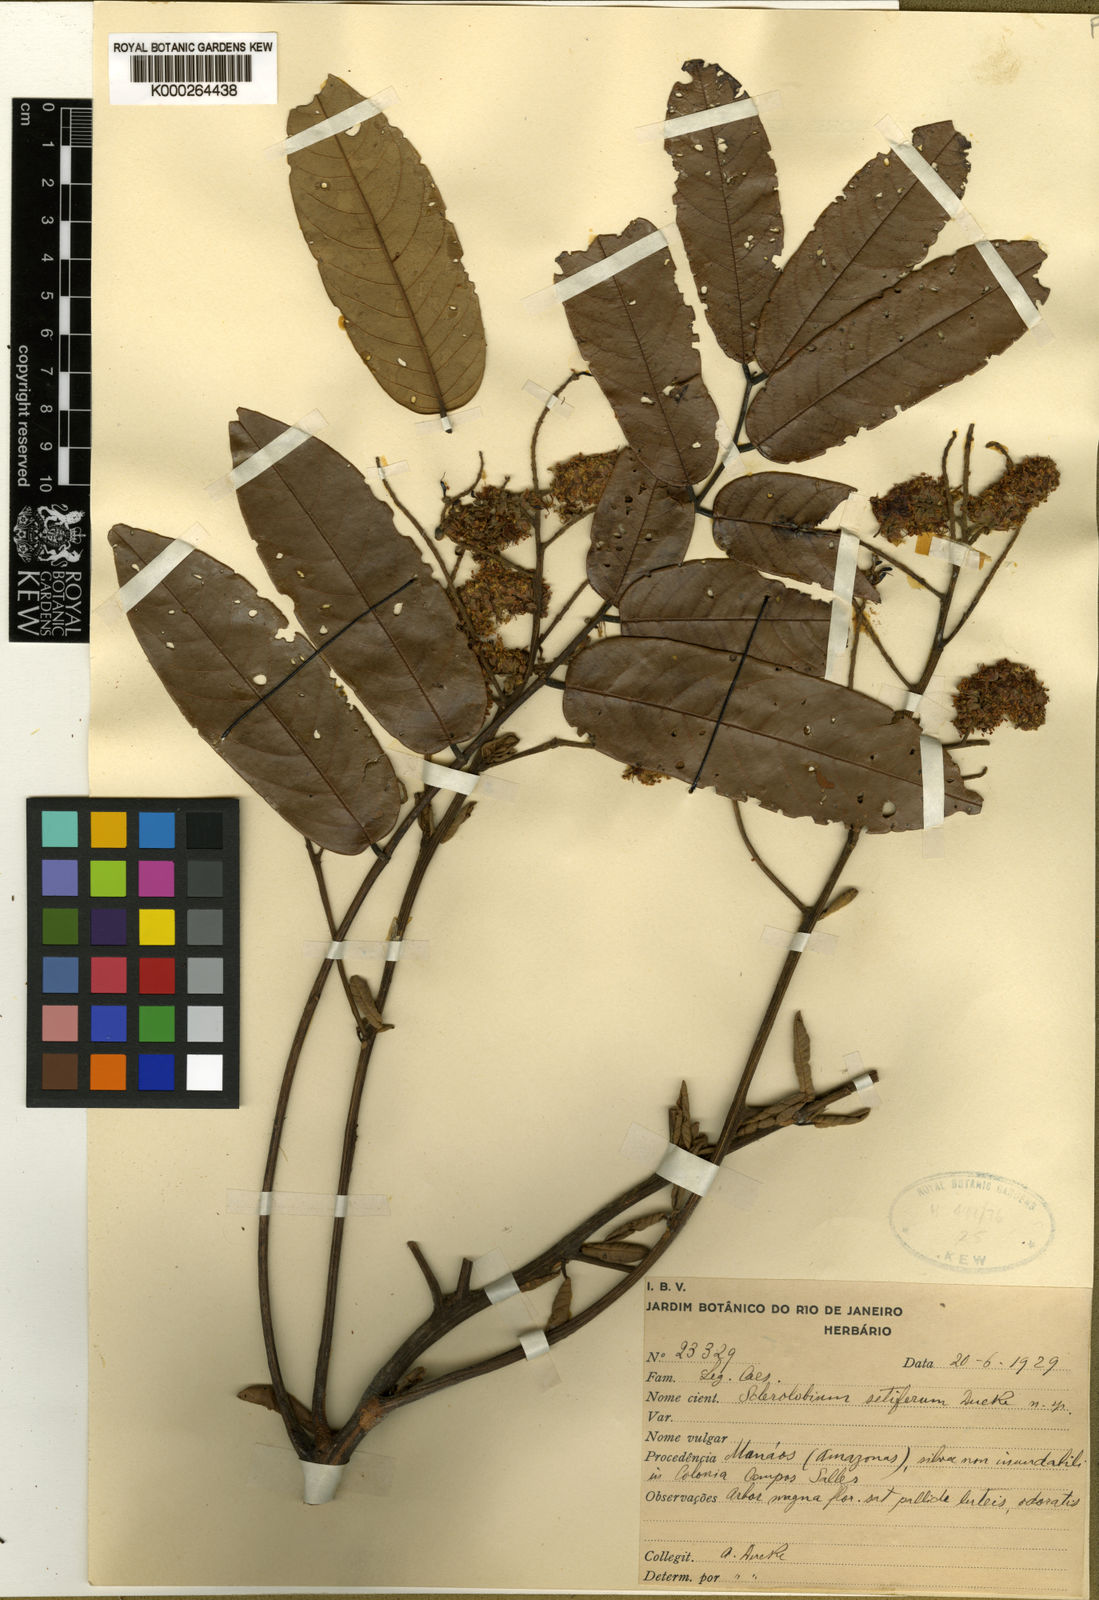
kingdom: Plantae
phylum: Tracheophyta
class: Magnoliopsida
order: Fabales
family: Fabaceae
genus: Tachigali
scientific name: Tachigali setifera
